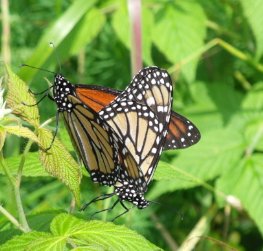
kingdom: Animalia
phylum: Arthropoda
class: Insecta
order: Lepidoptera
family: Nymphalidae
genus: Danaus
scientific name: Danaus plexippus
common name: Monarch
